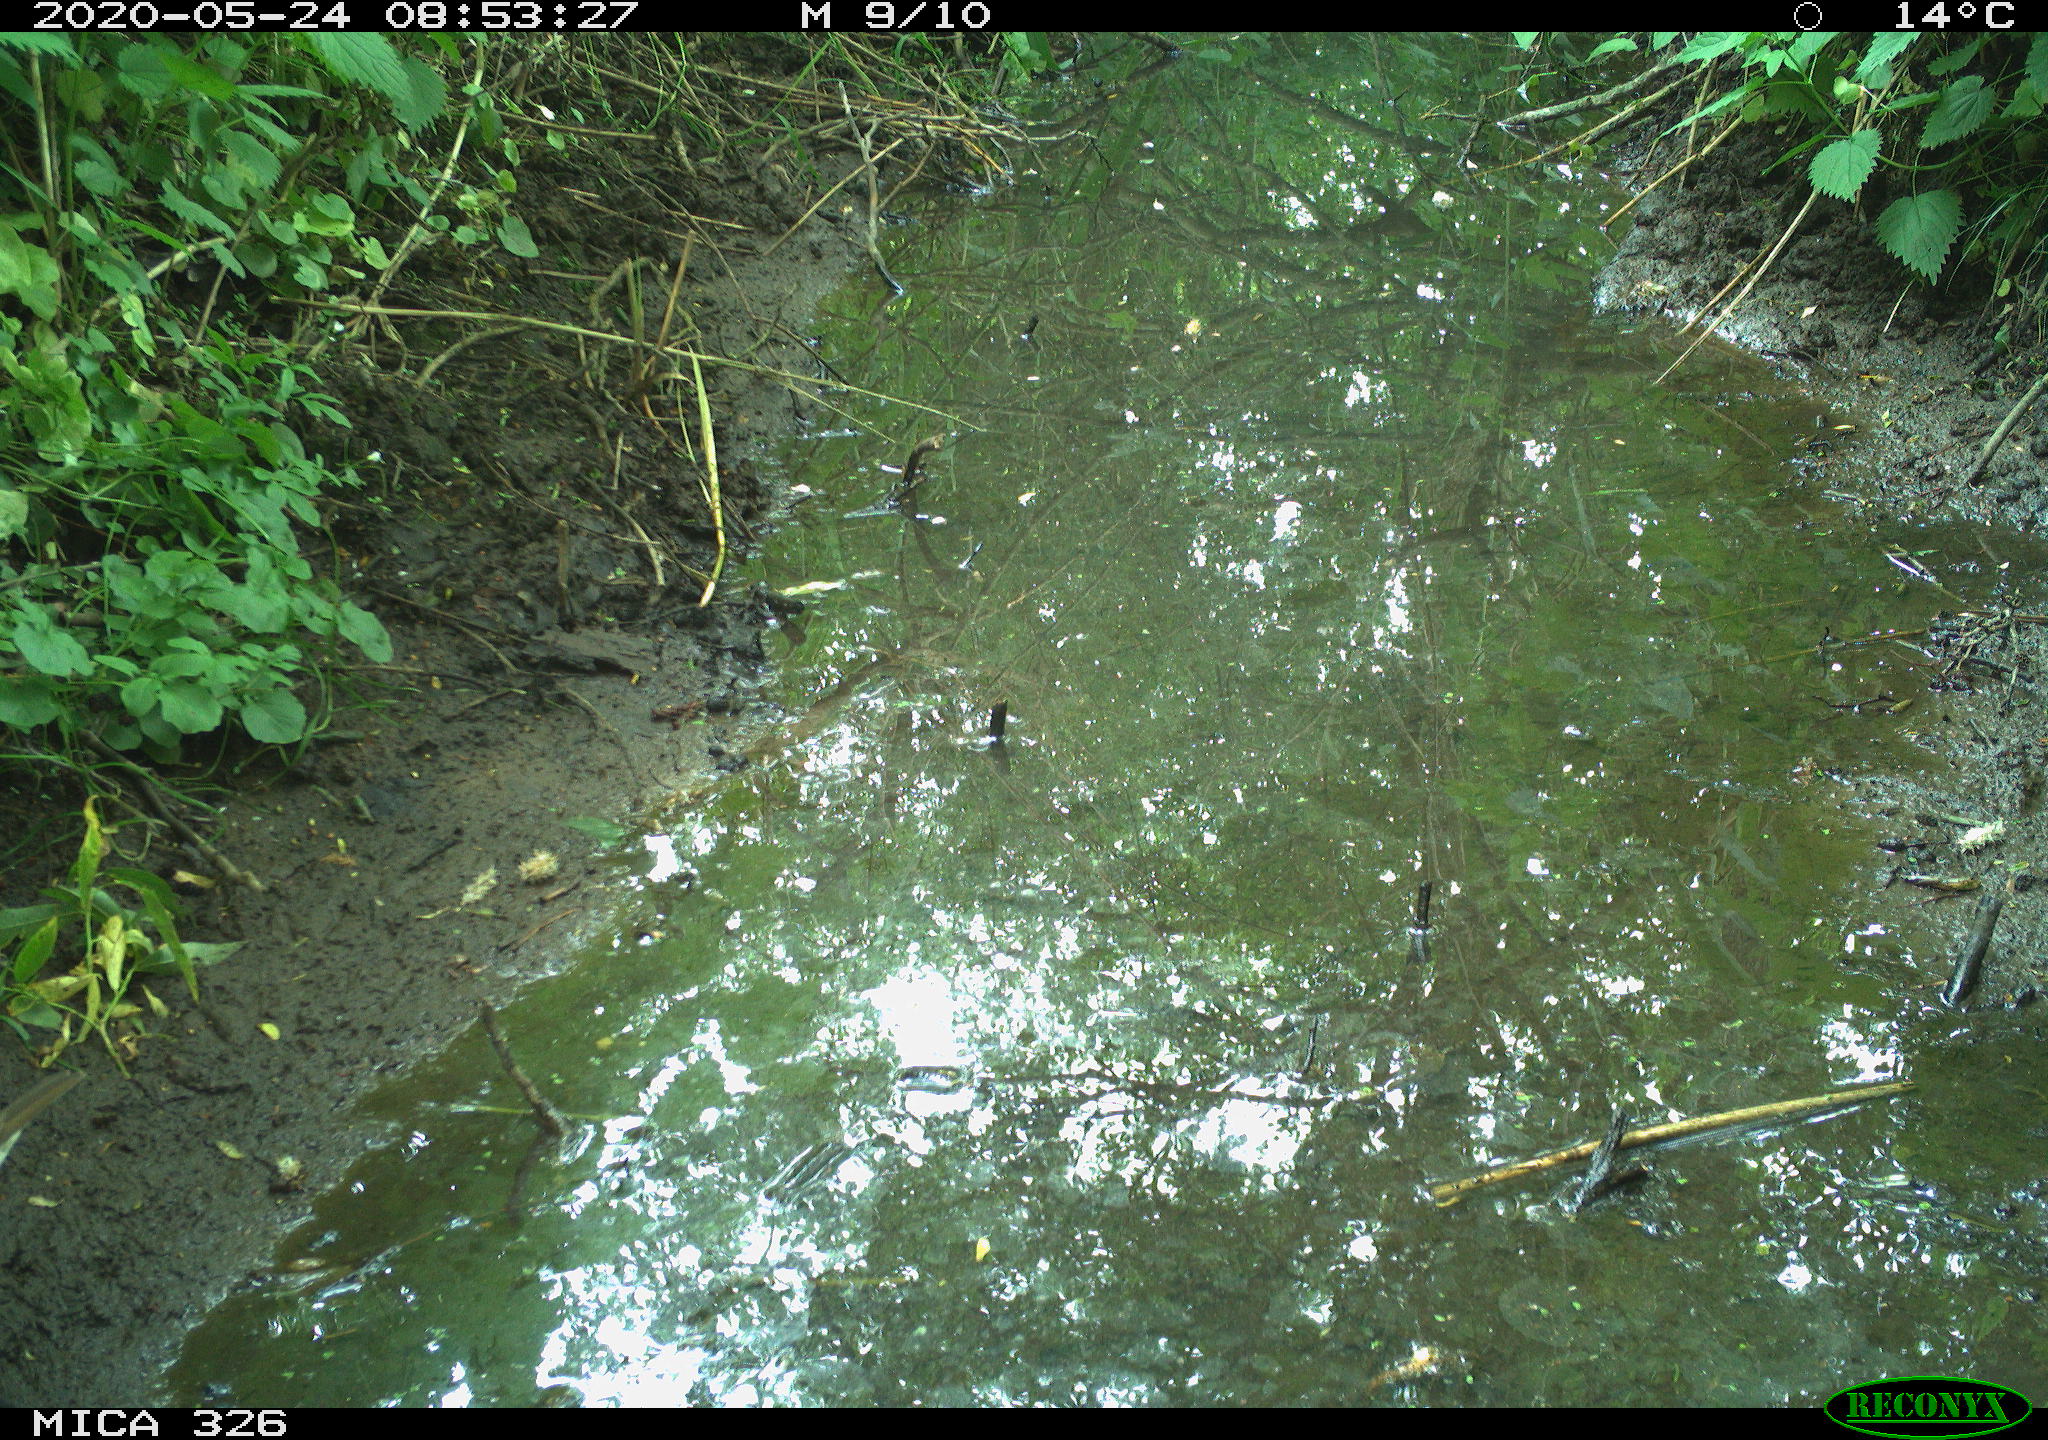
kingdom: Animalia
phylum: Chordata
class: Aves
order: Passeriformes
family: Turdidae
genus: Turdus
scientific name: Turdus philomelos
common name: Song thrush
